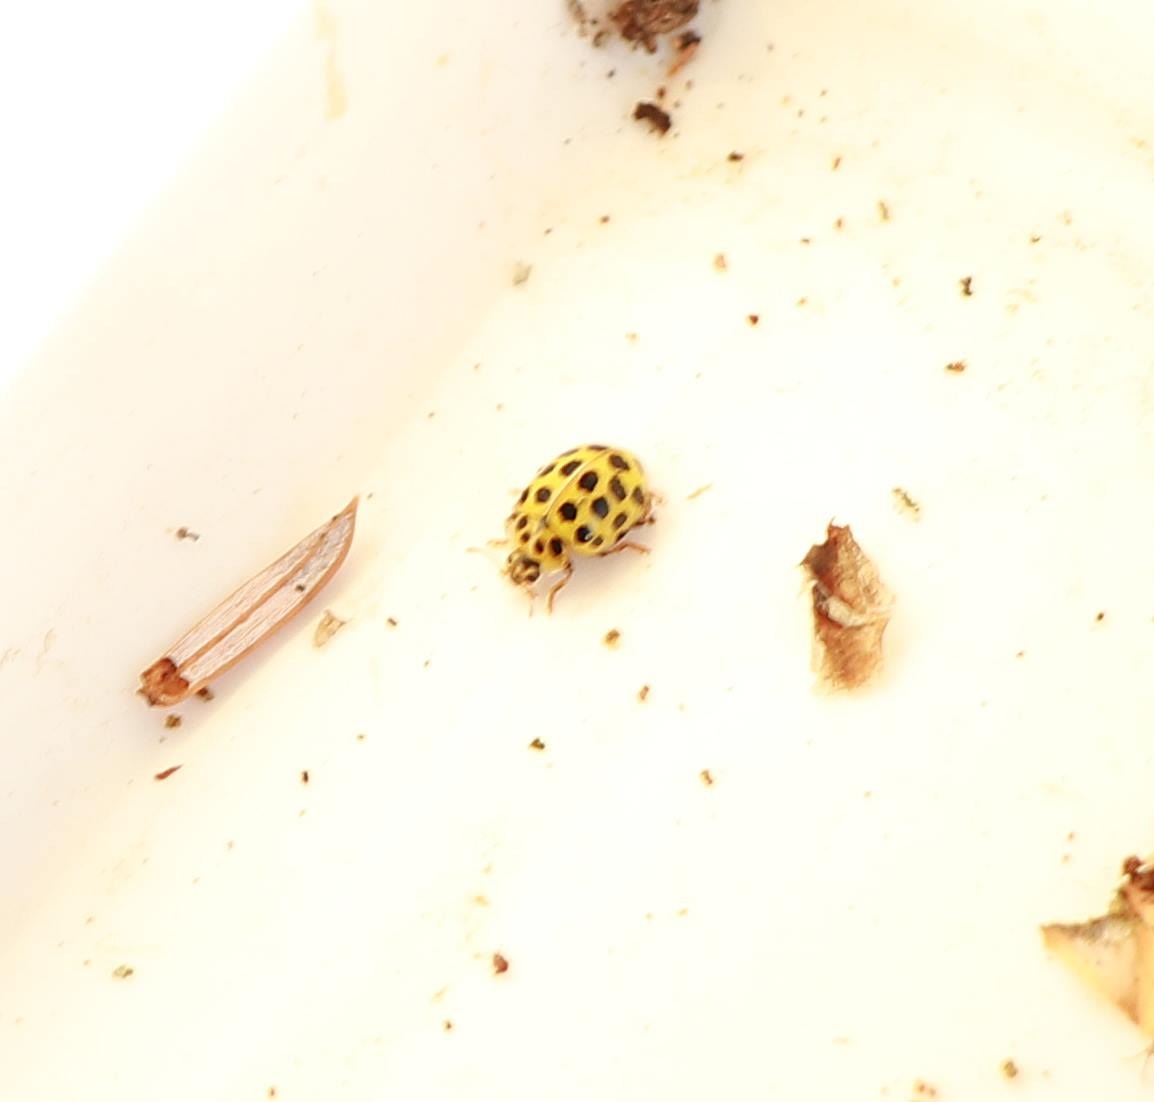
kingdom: Animalia
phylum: Arthropoda
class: Insecta
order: Coleoptera
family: Coccinellidae
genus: Psyllobora
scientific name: Psyllobora vigintiduopunctata
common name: Toogtyveplettet mariehøne
